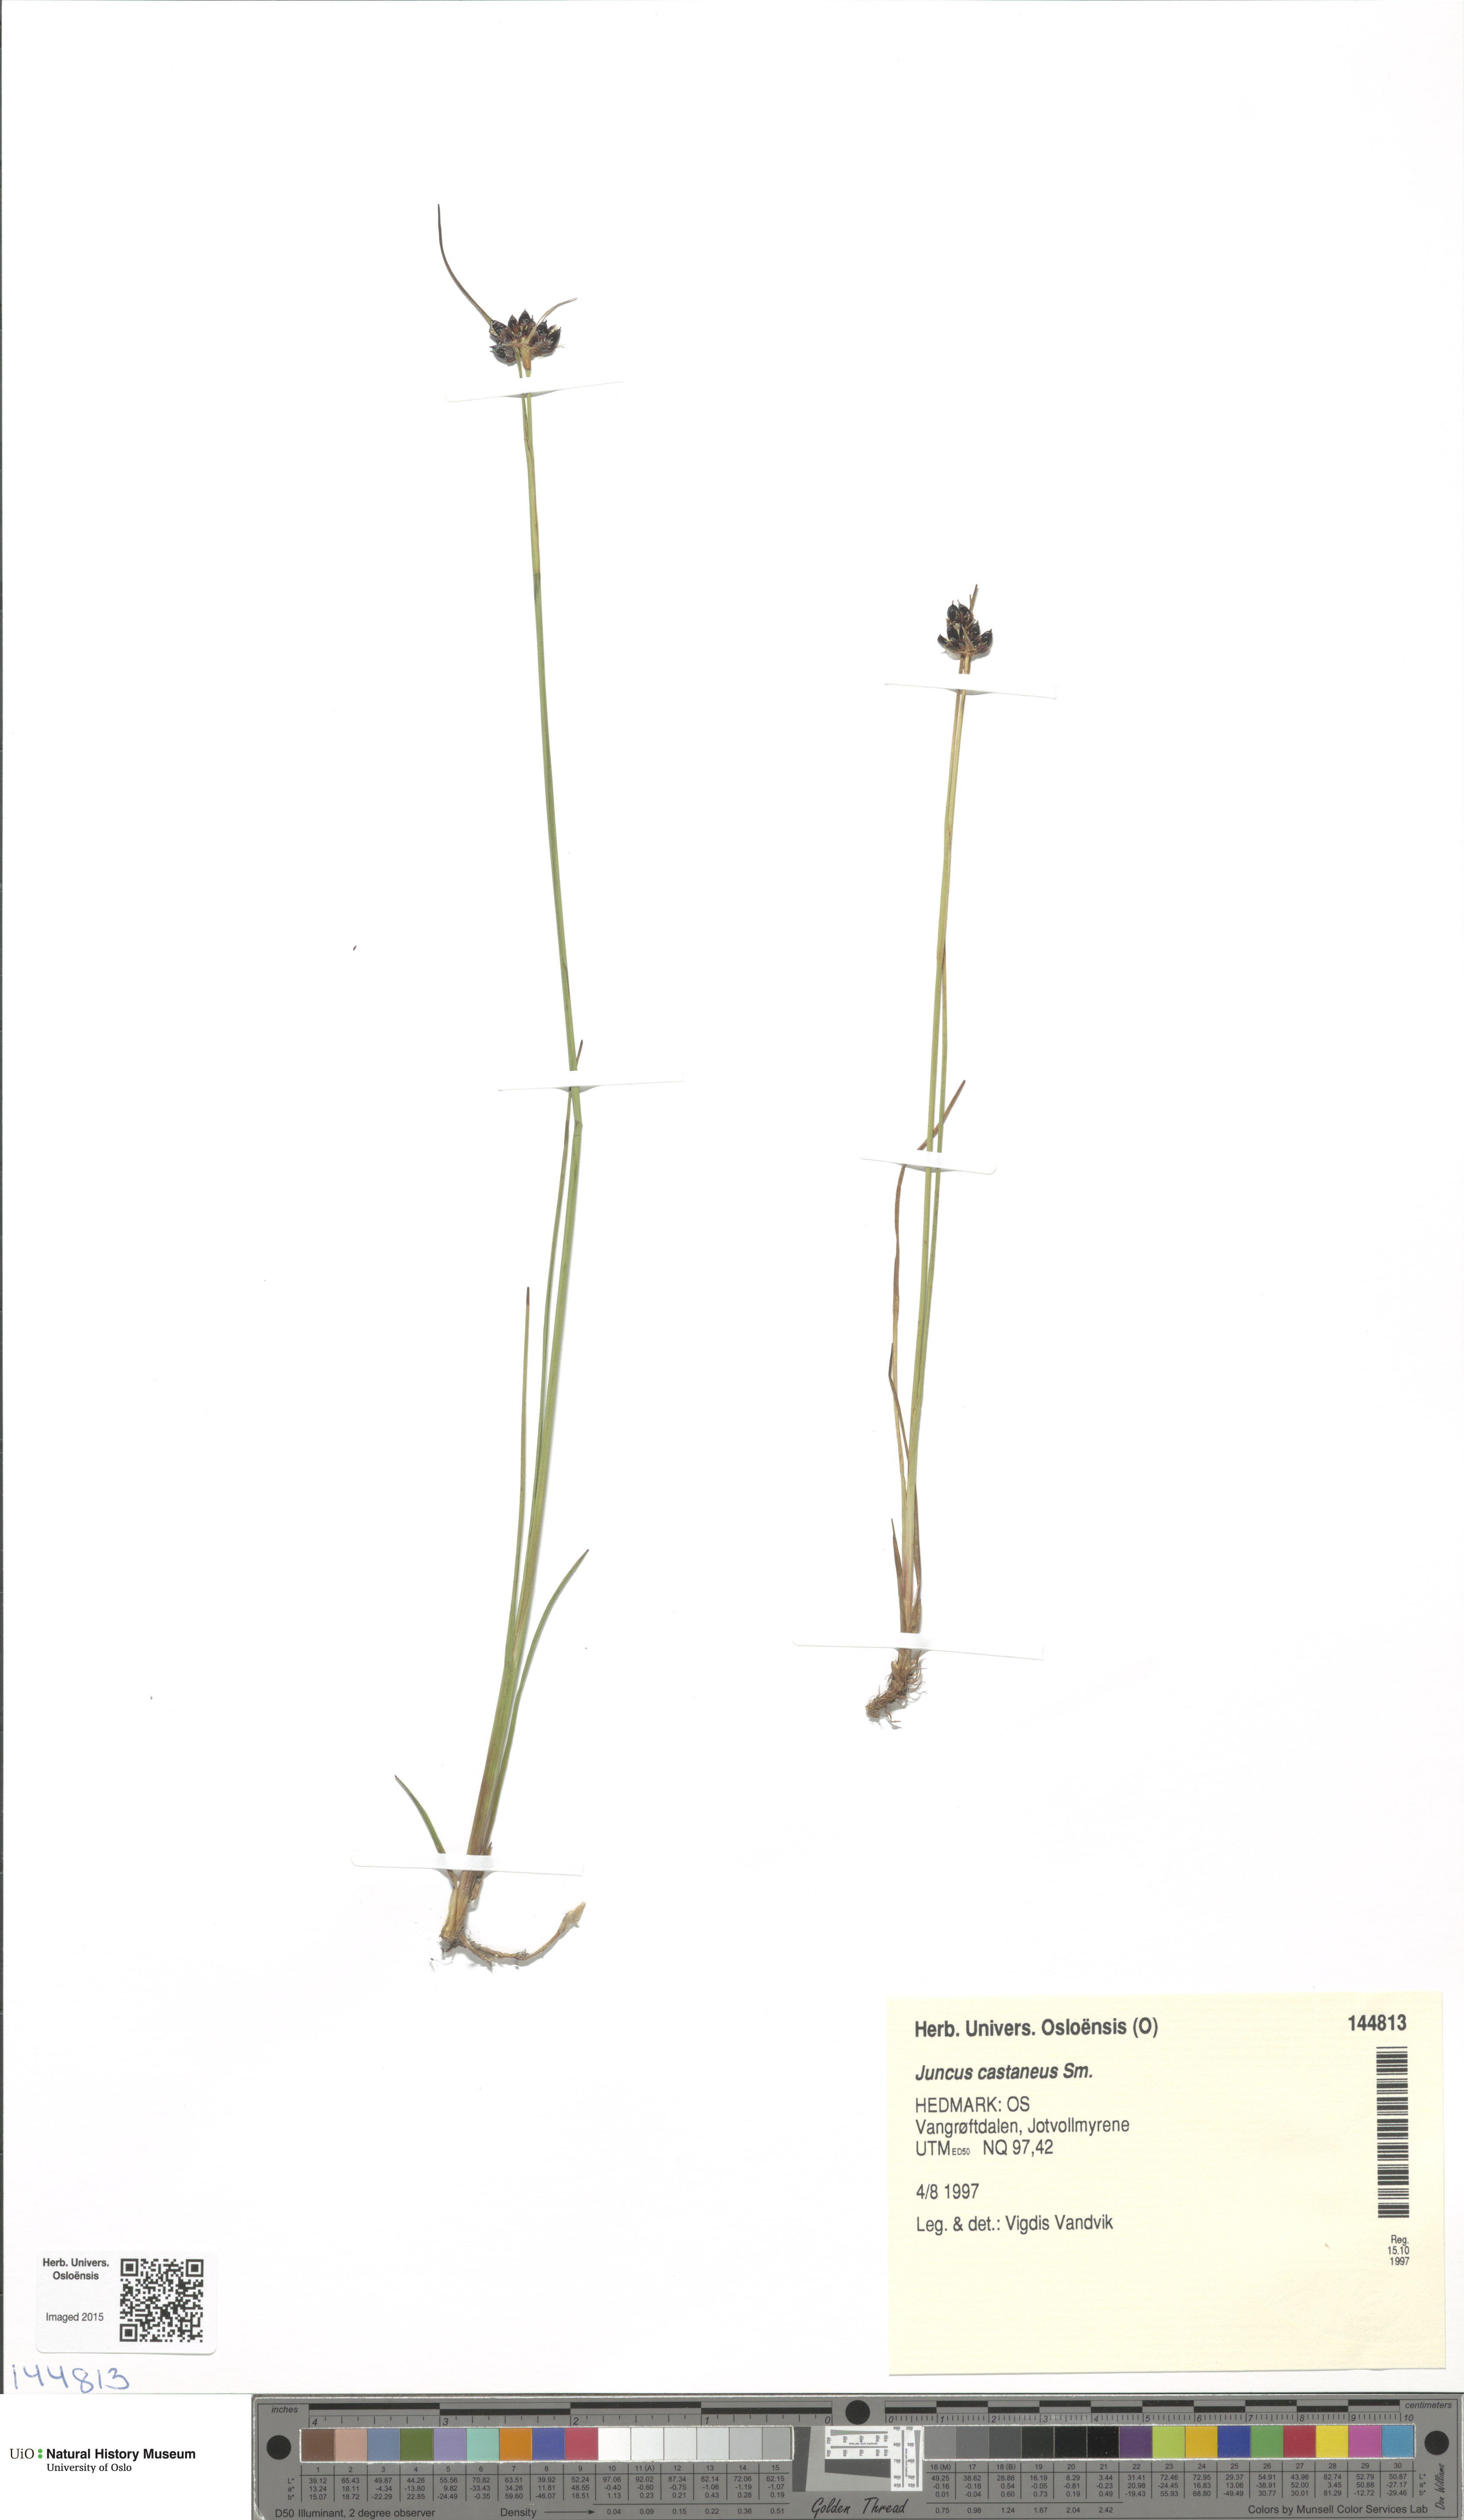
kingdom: Plantae
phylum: Tracheophyta
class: Liliopsida
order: Poales
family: Juncaceae
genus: Juncus
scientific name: Juncus castaneus
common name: Chestnut rush
